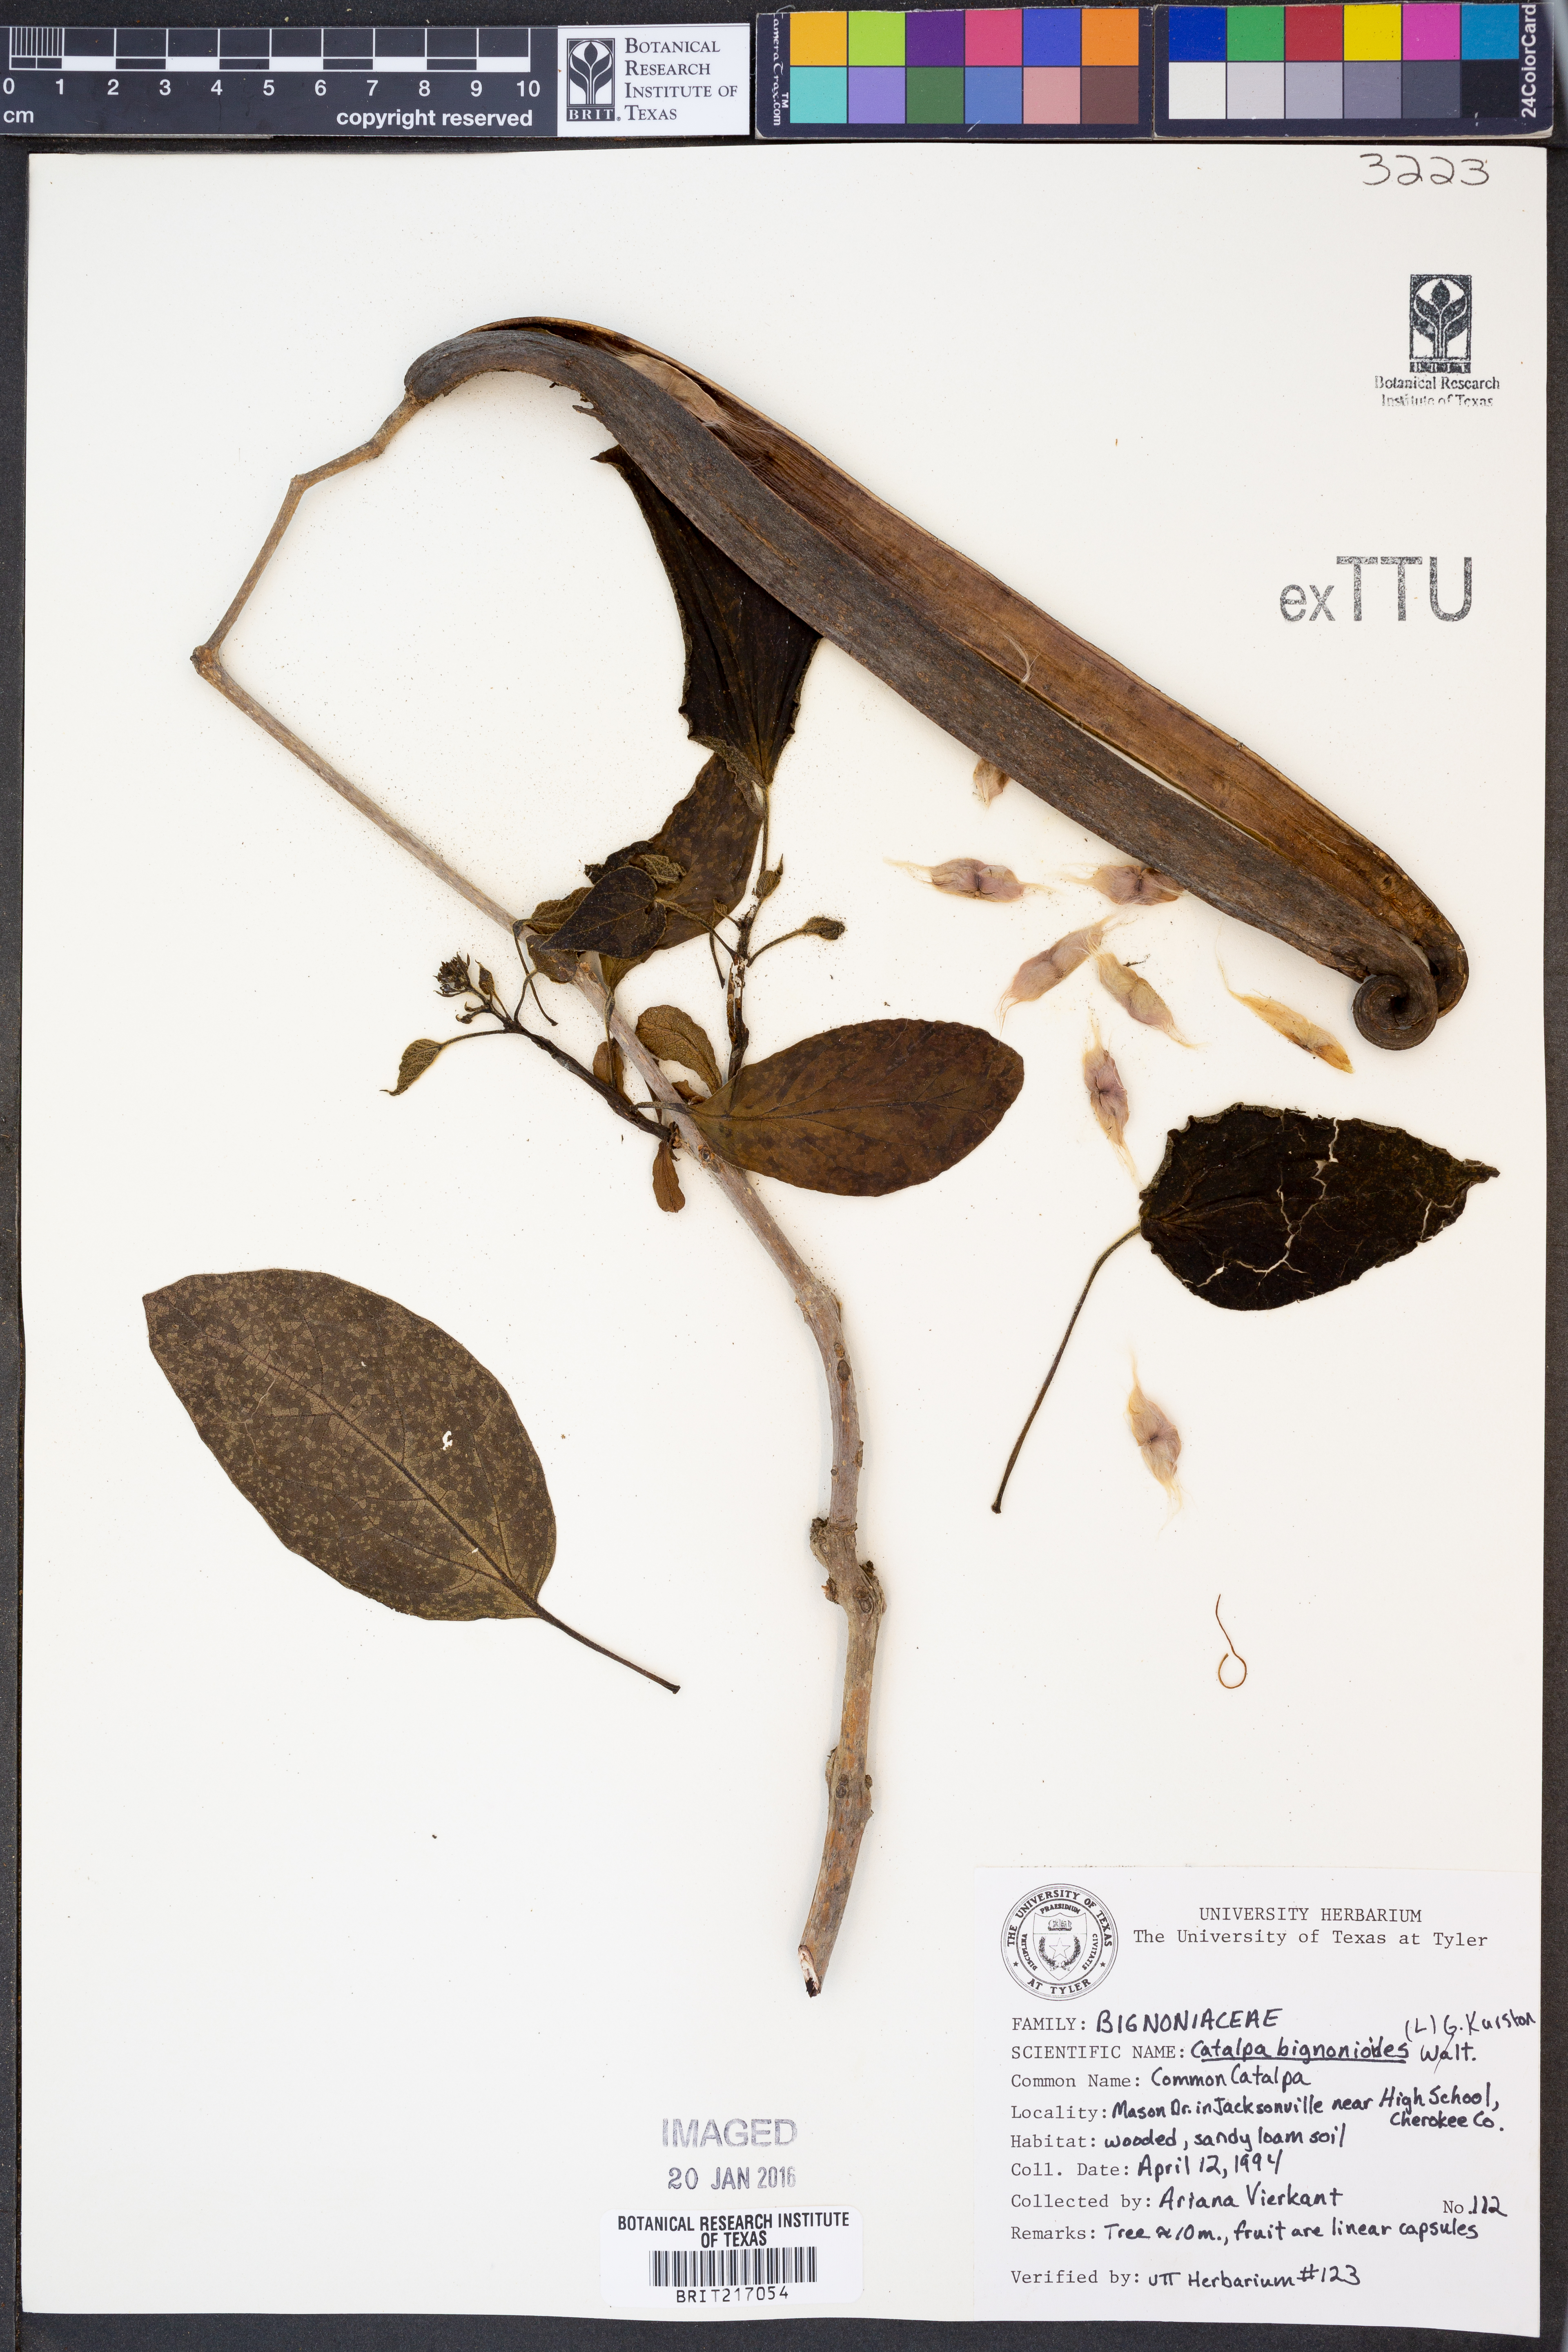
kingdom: Plantae
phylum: Tracheophyta
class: Magnoliopsida
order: Lamiales
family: Bignoniaceae
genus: Catalpa
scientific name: Catalpa bignonioides
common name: Southern catalpa
